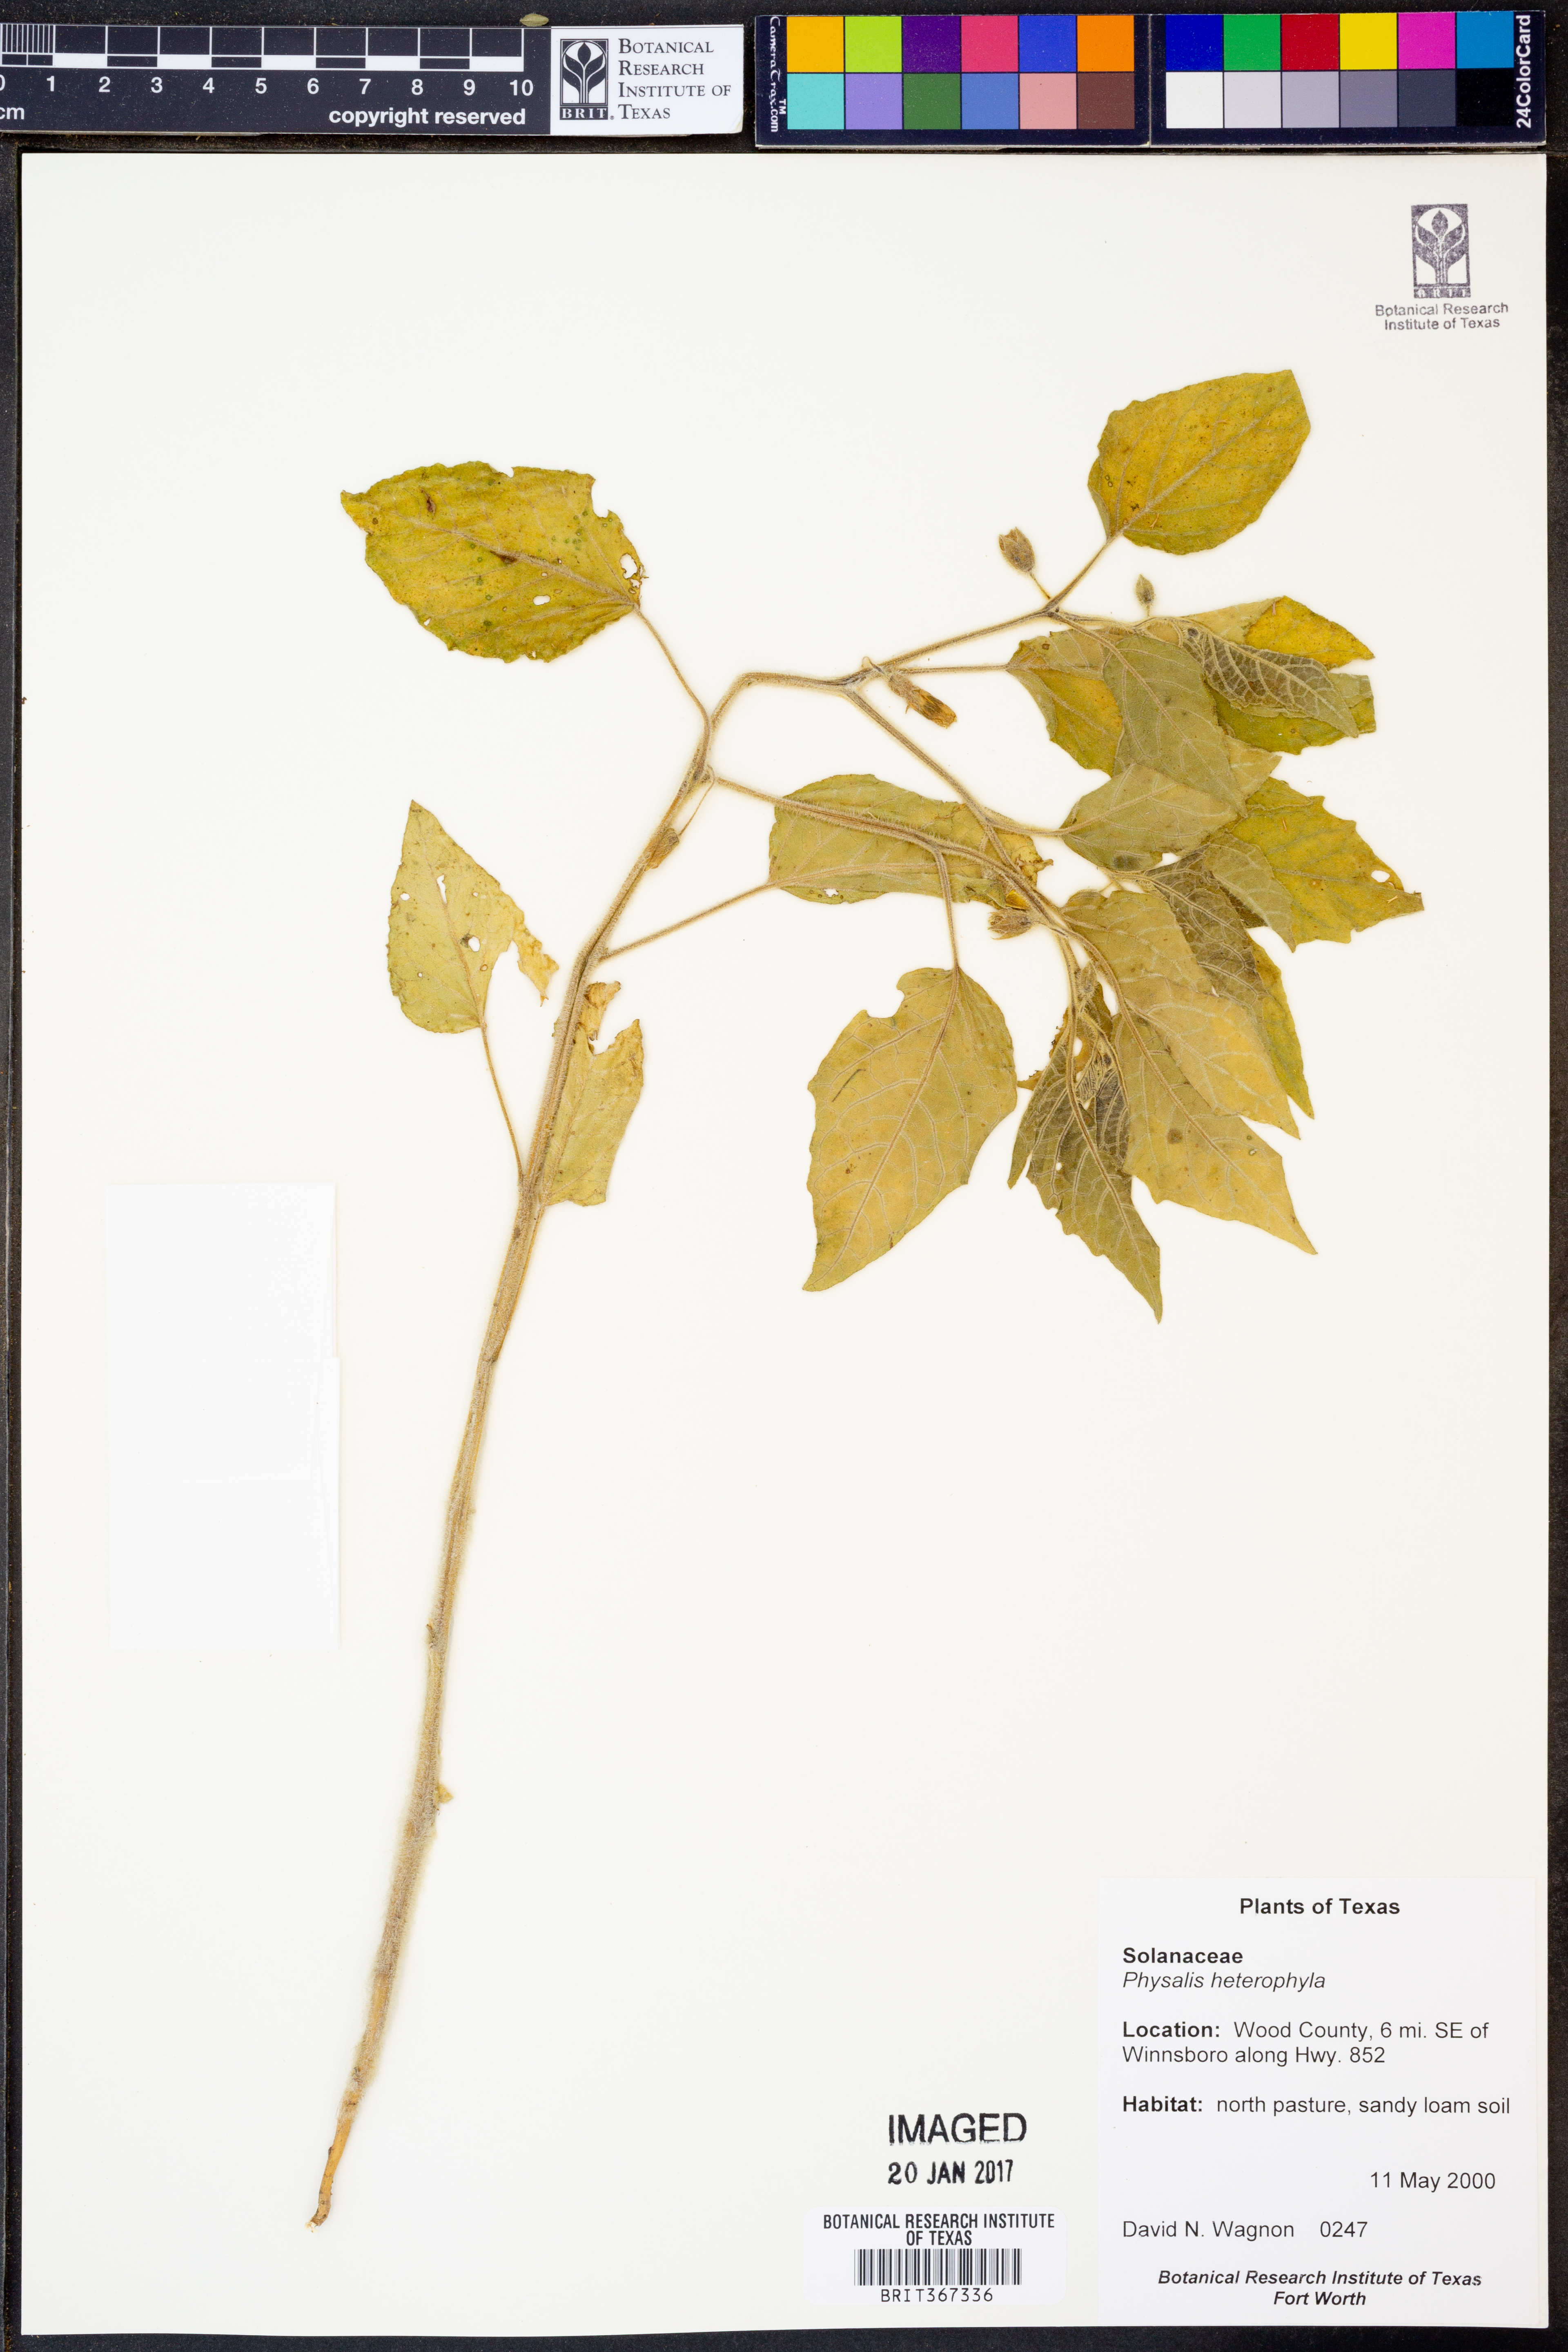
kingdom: Plantae
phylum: Tracheophyta
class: Magnoliopsida
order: Solanales
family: Solanaceae
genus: Physalis
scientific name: Physalis heterophylla
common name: Clammy ground-cherry
